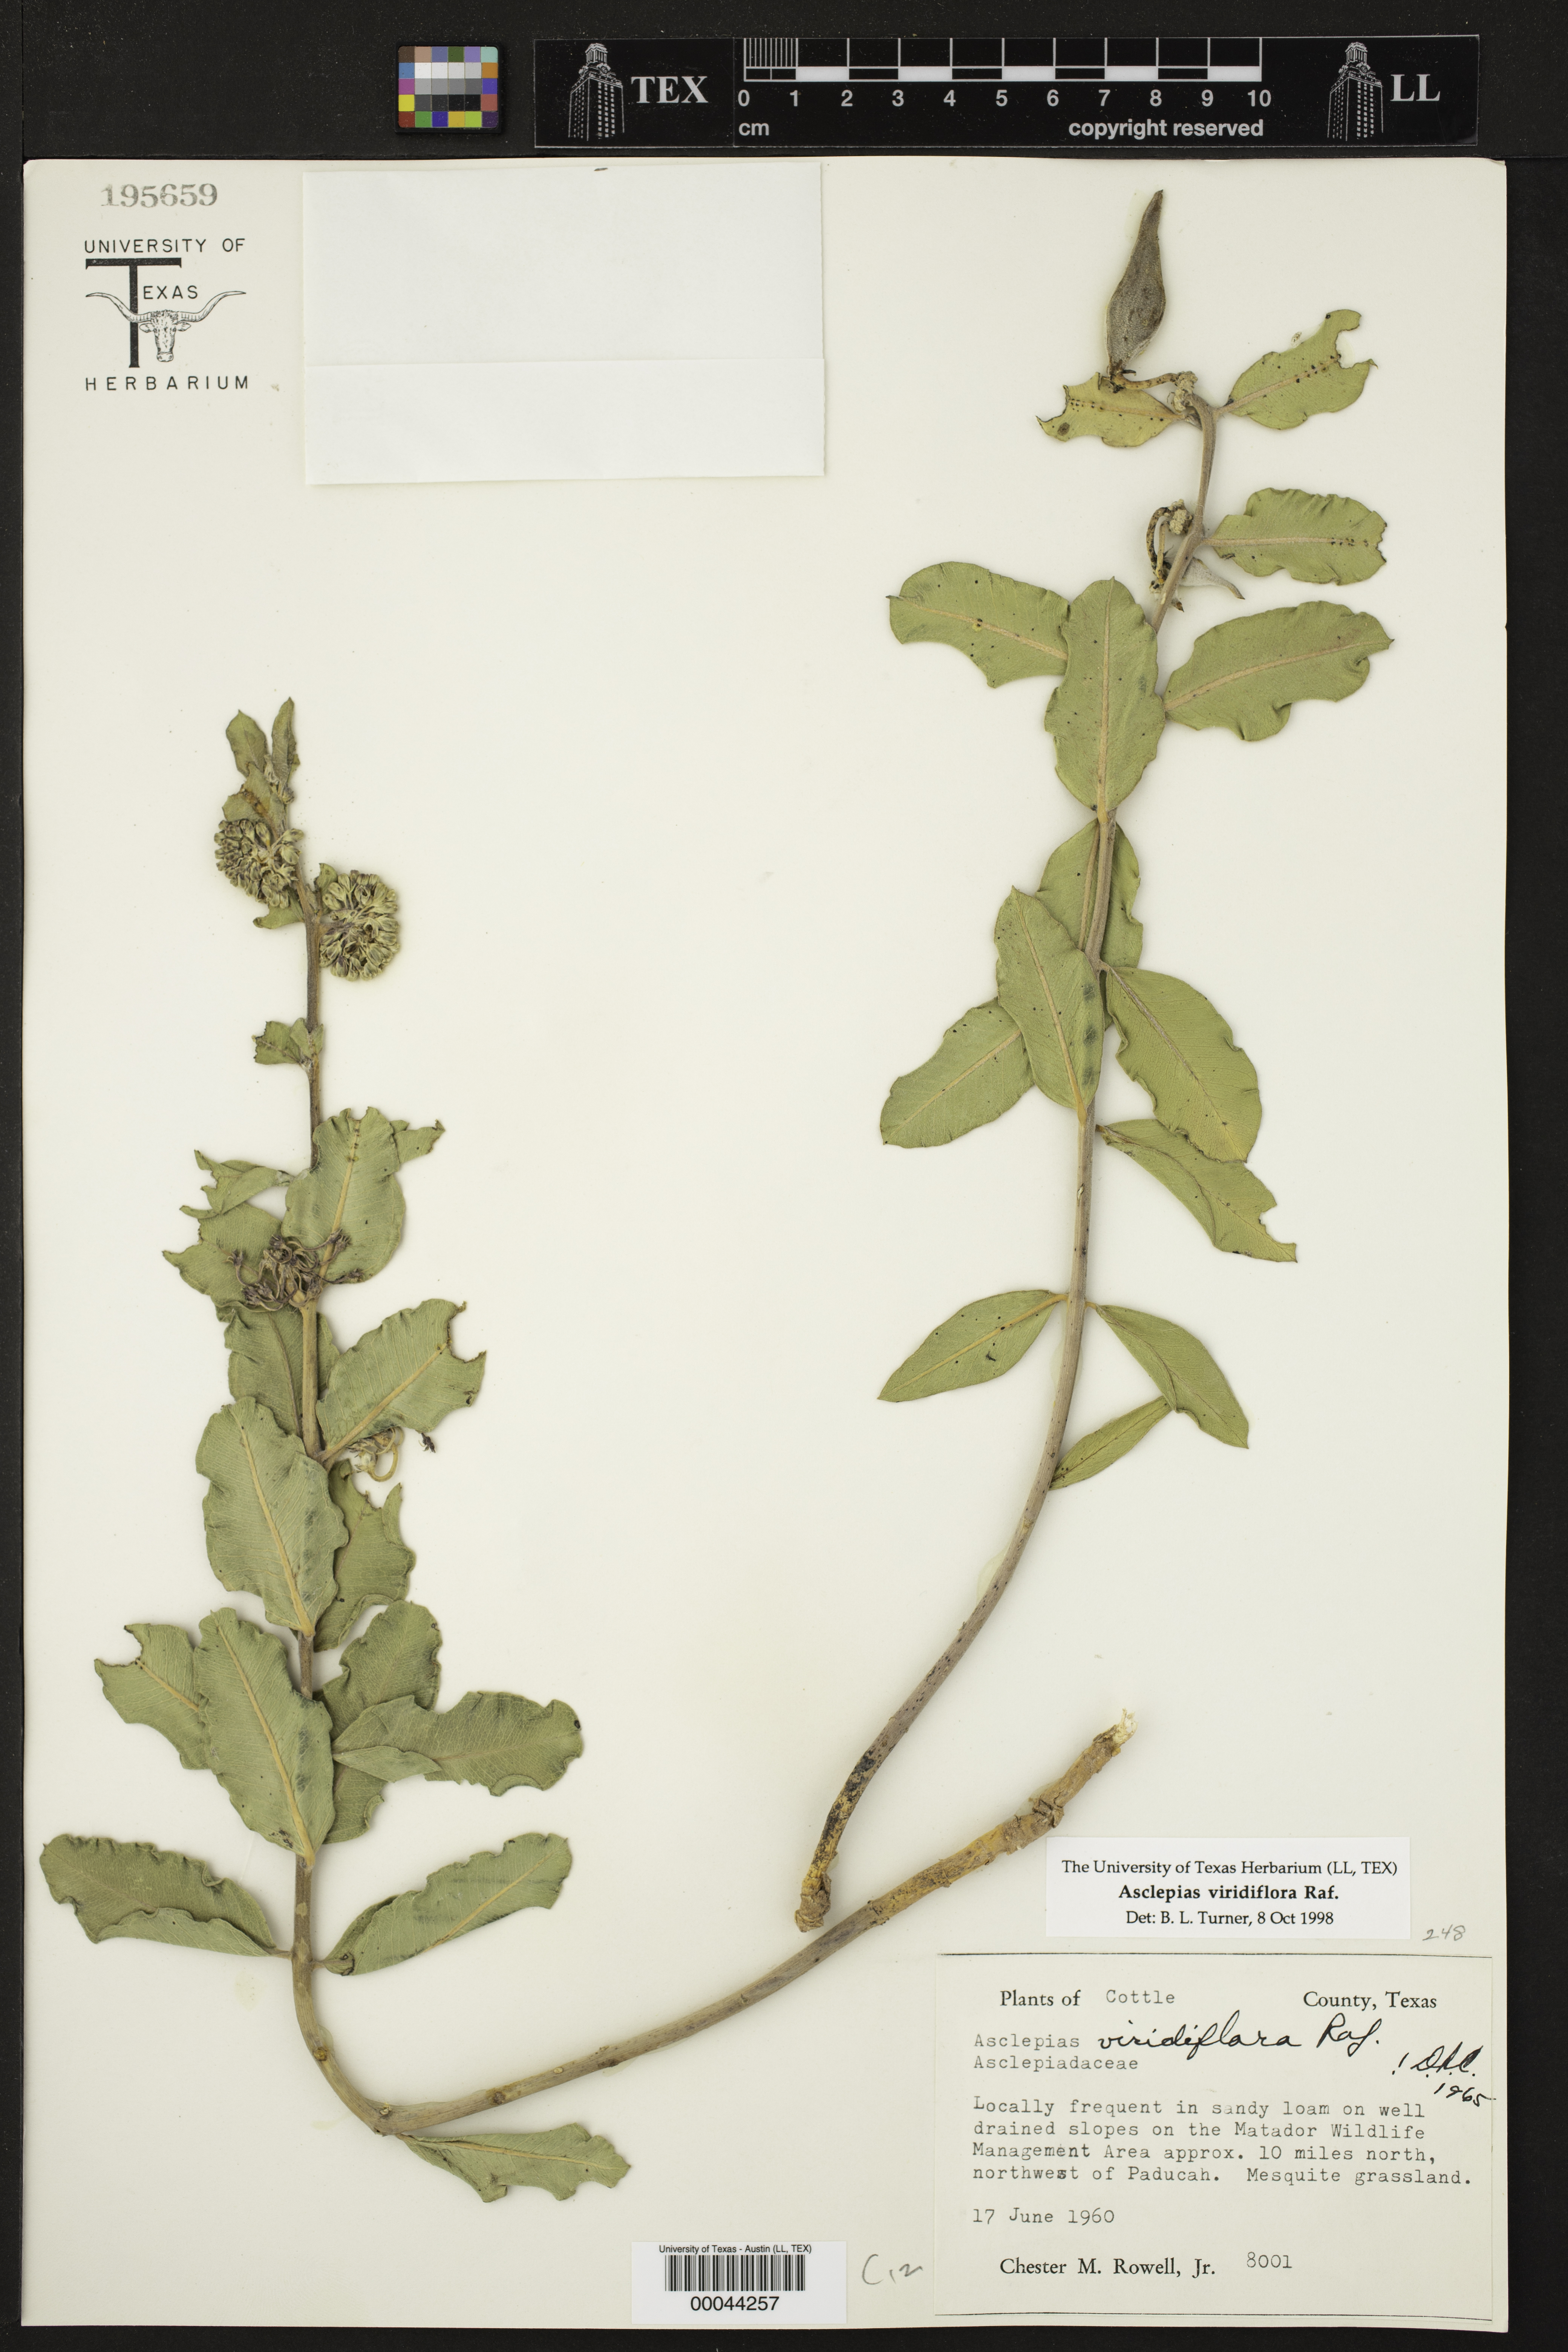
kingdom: Plantae
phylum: Tracheophyta
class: Magnoliopsida
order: Gentianales
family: Apocynaceae
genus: Asclepias
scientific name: Asclepias viridiflora
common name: Green comet milkweed
